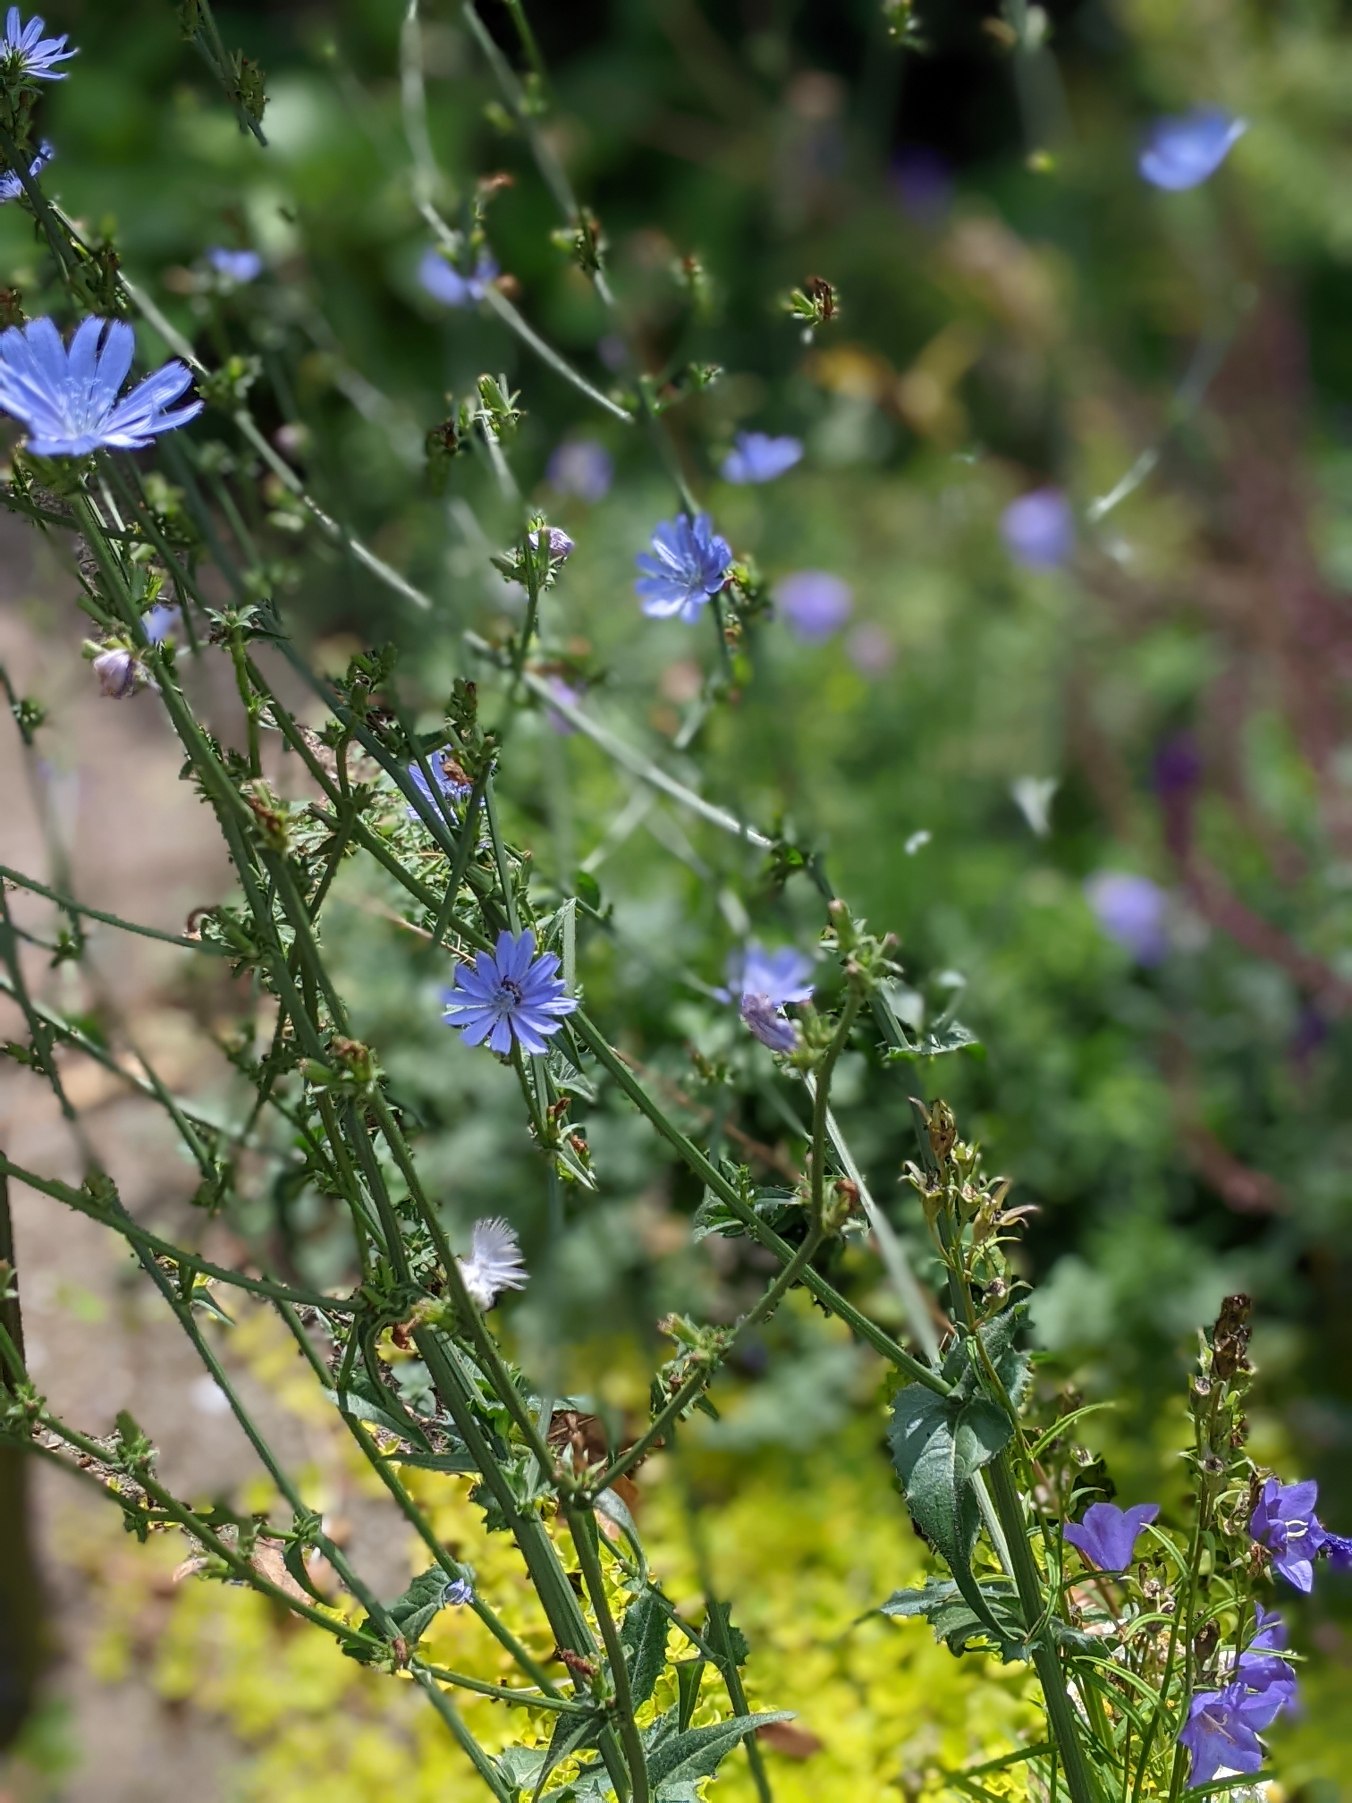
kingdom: Plantae
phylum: Tracheophyta
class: Magnoliopsida
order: Asterales
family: Asteraceae
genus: Cichorium
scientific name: Cichorium intybus
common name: Cikorie (varietet)
